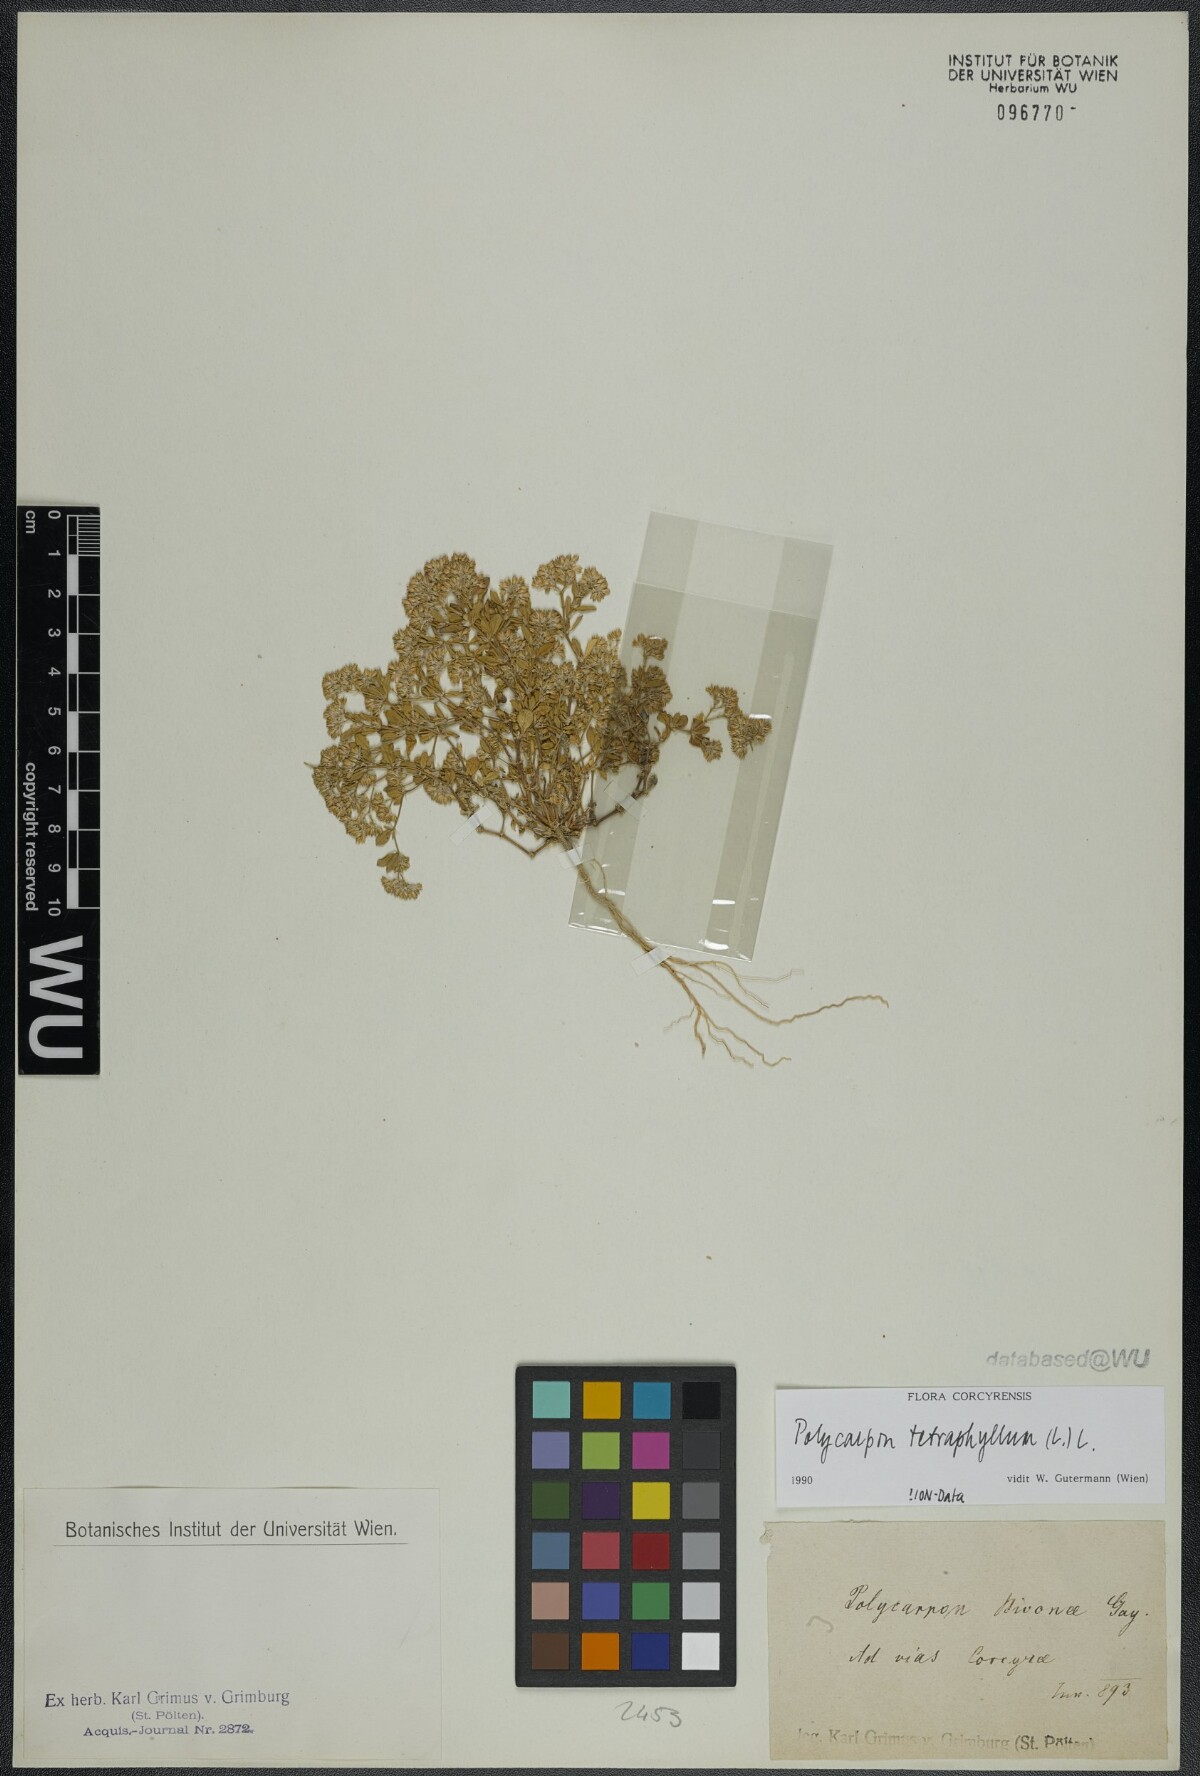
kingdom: Plantae
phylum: Tracheophyta
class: Magnoliopsida
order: Caryophyllales
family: Caryophyllaceae
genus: Polycarpon
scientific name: Polycarpon tetraphyllum
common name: Four-leaved all-seed
